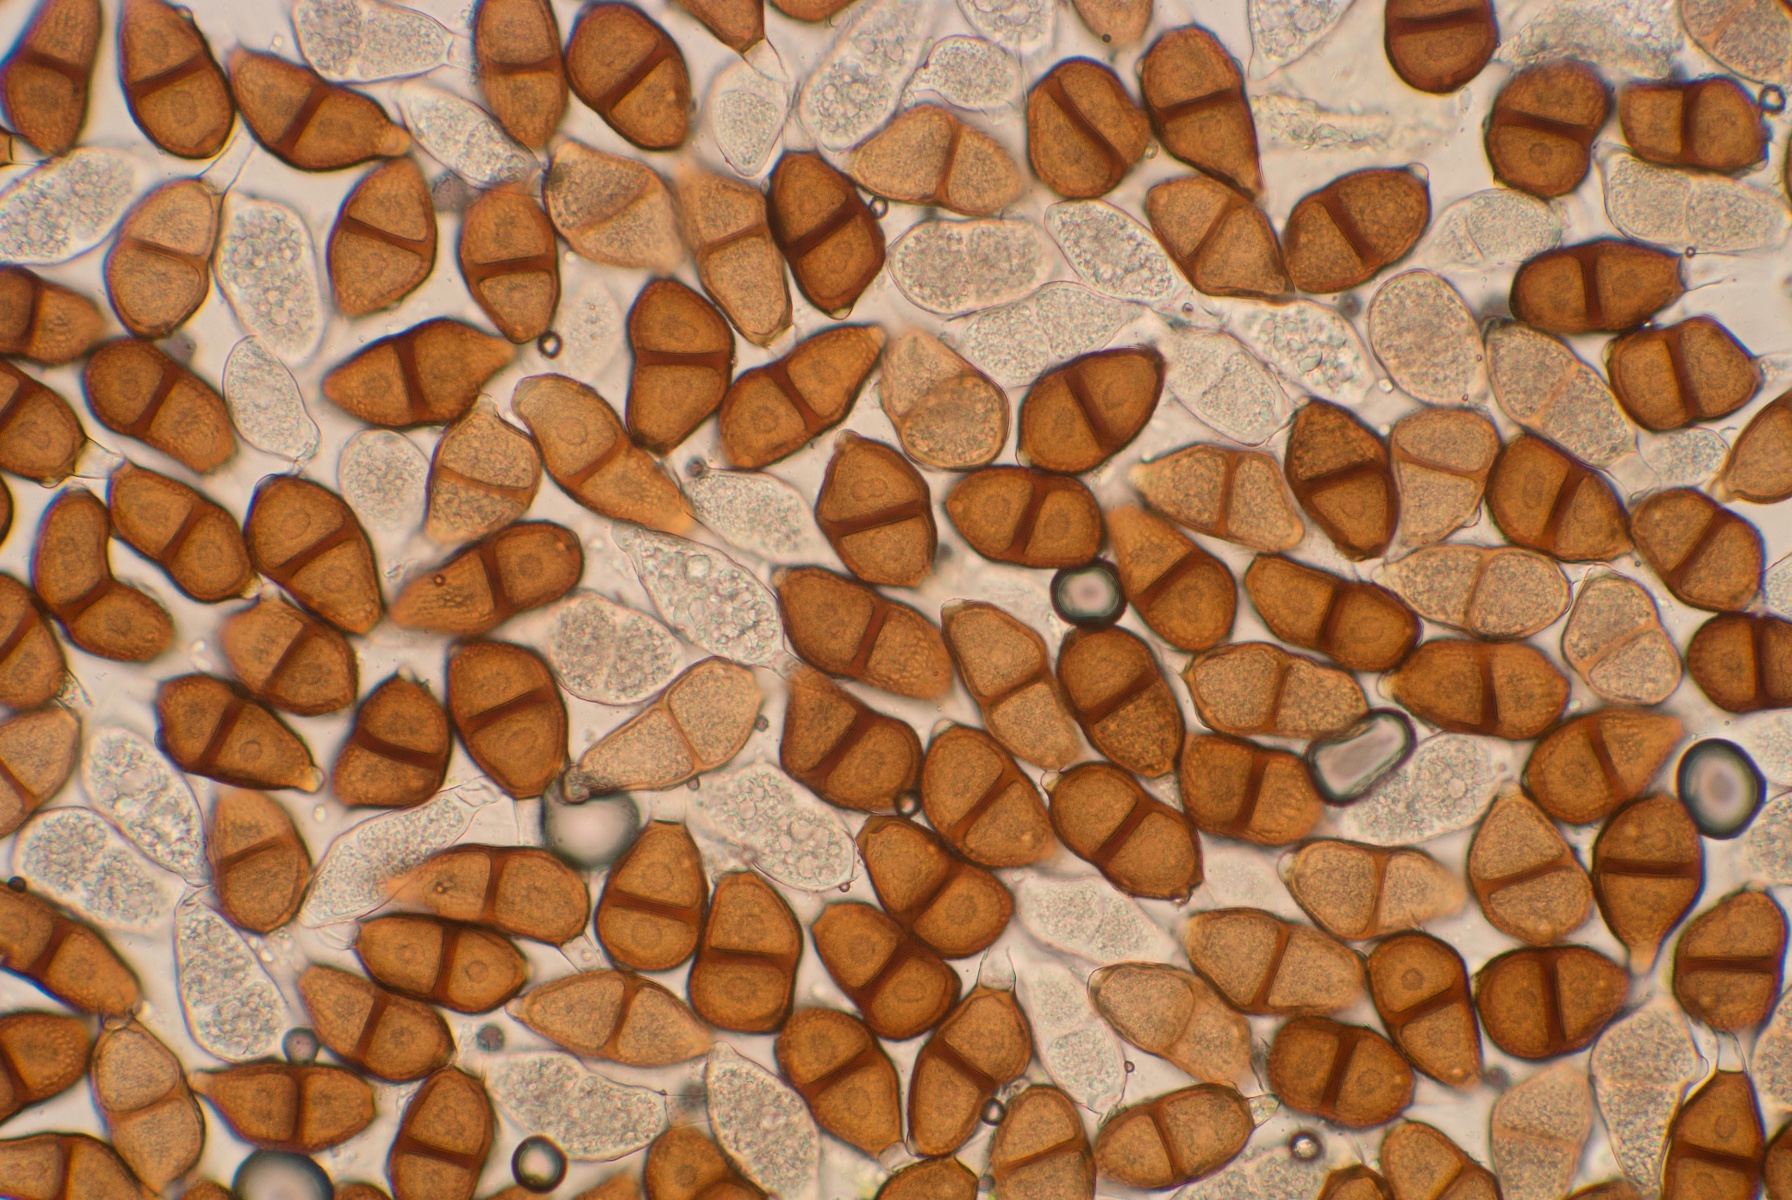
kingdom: Fungi
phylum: Basidiomycota
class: Pucciniomycetes
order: Pucciniales
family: Pucciniaceae
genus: Puccinia
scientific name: Puccinia cribrata
